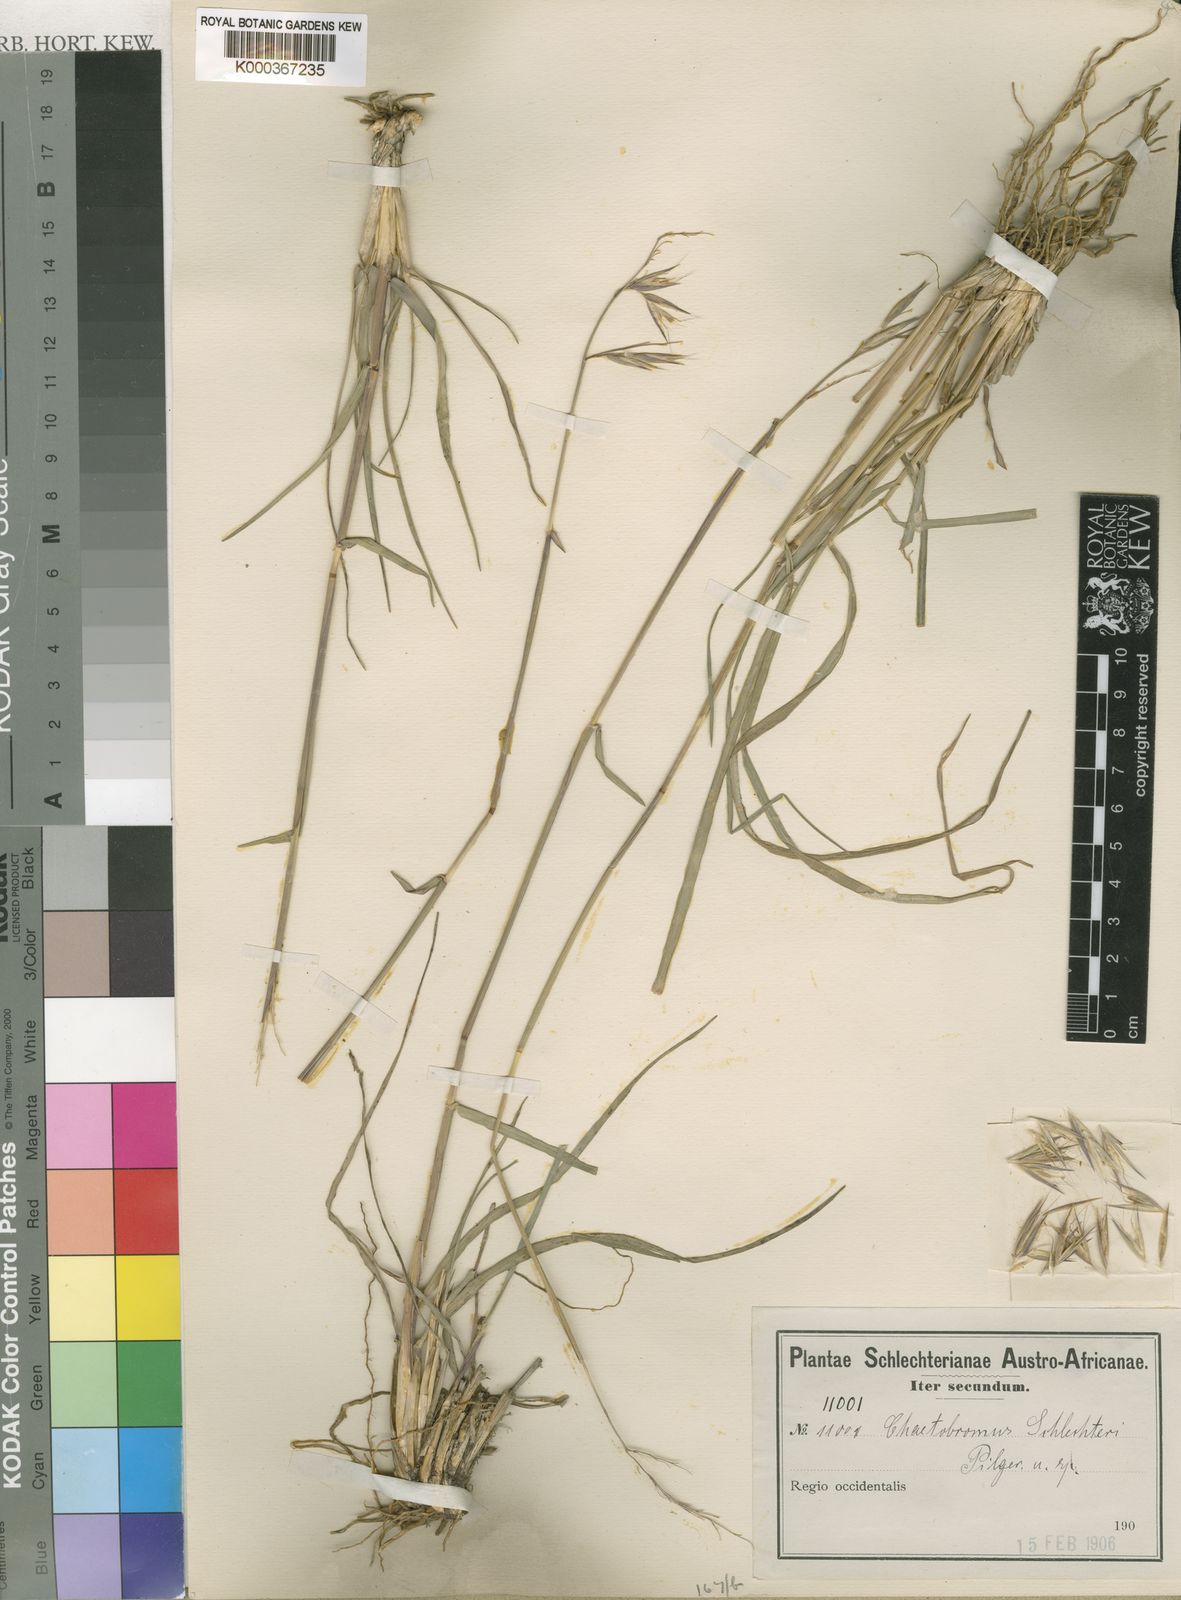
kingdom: Plantae
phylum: Tracheophyta
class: Liliopsida
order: Poales
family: Poaceae
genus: Chaetobromus
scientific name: Chaetobromus involucratus
